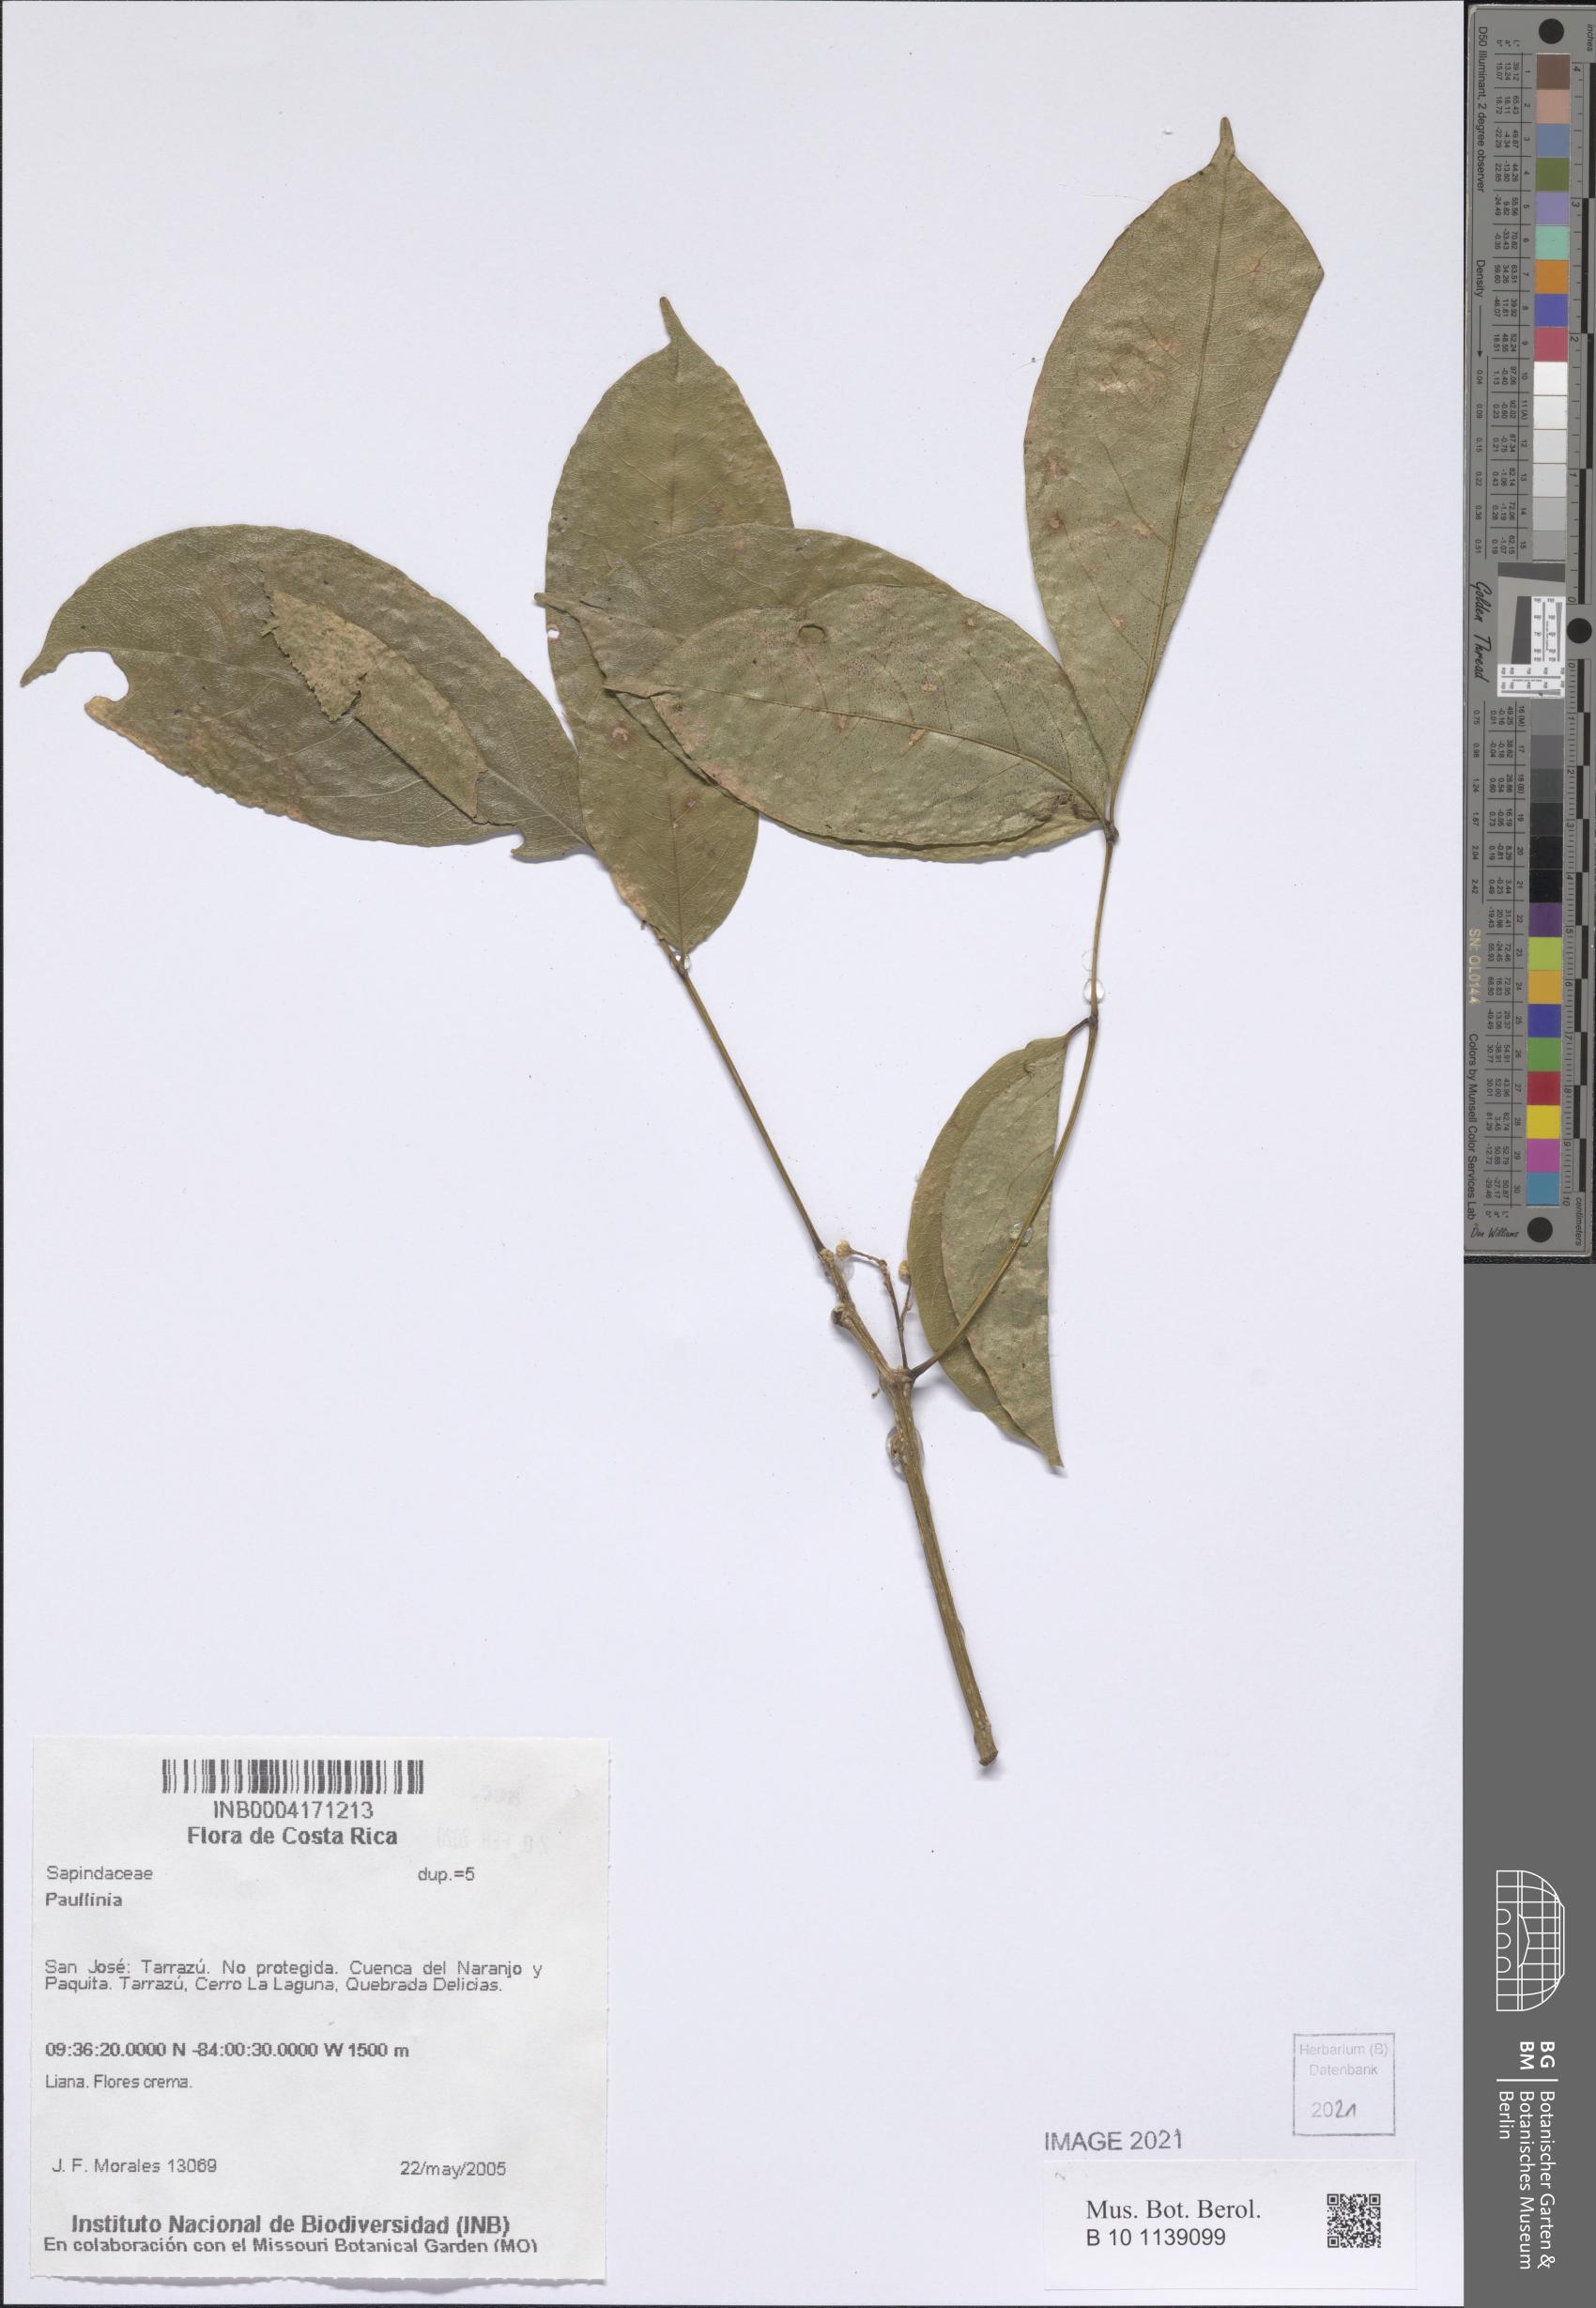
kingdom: Plantae
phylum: Tracheophyta
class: Magnoliopsida
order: Sapindales
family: Sapindaceae
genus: Paullinia
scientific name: Paullinia
